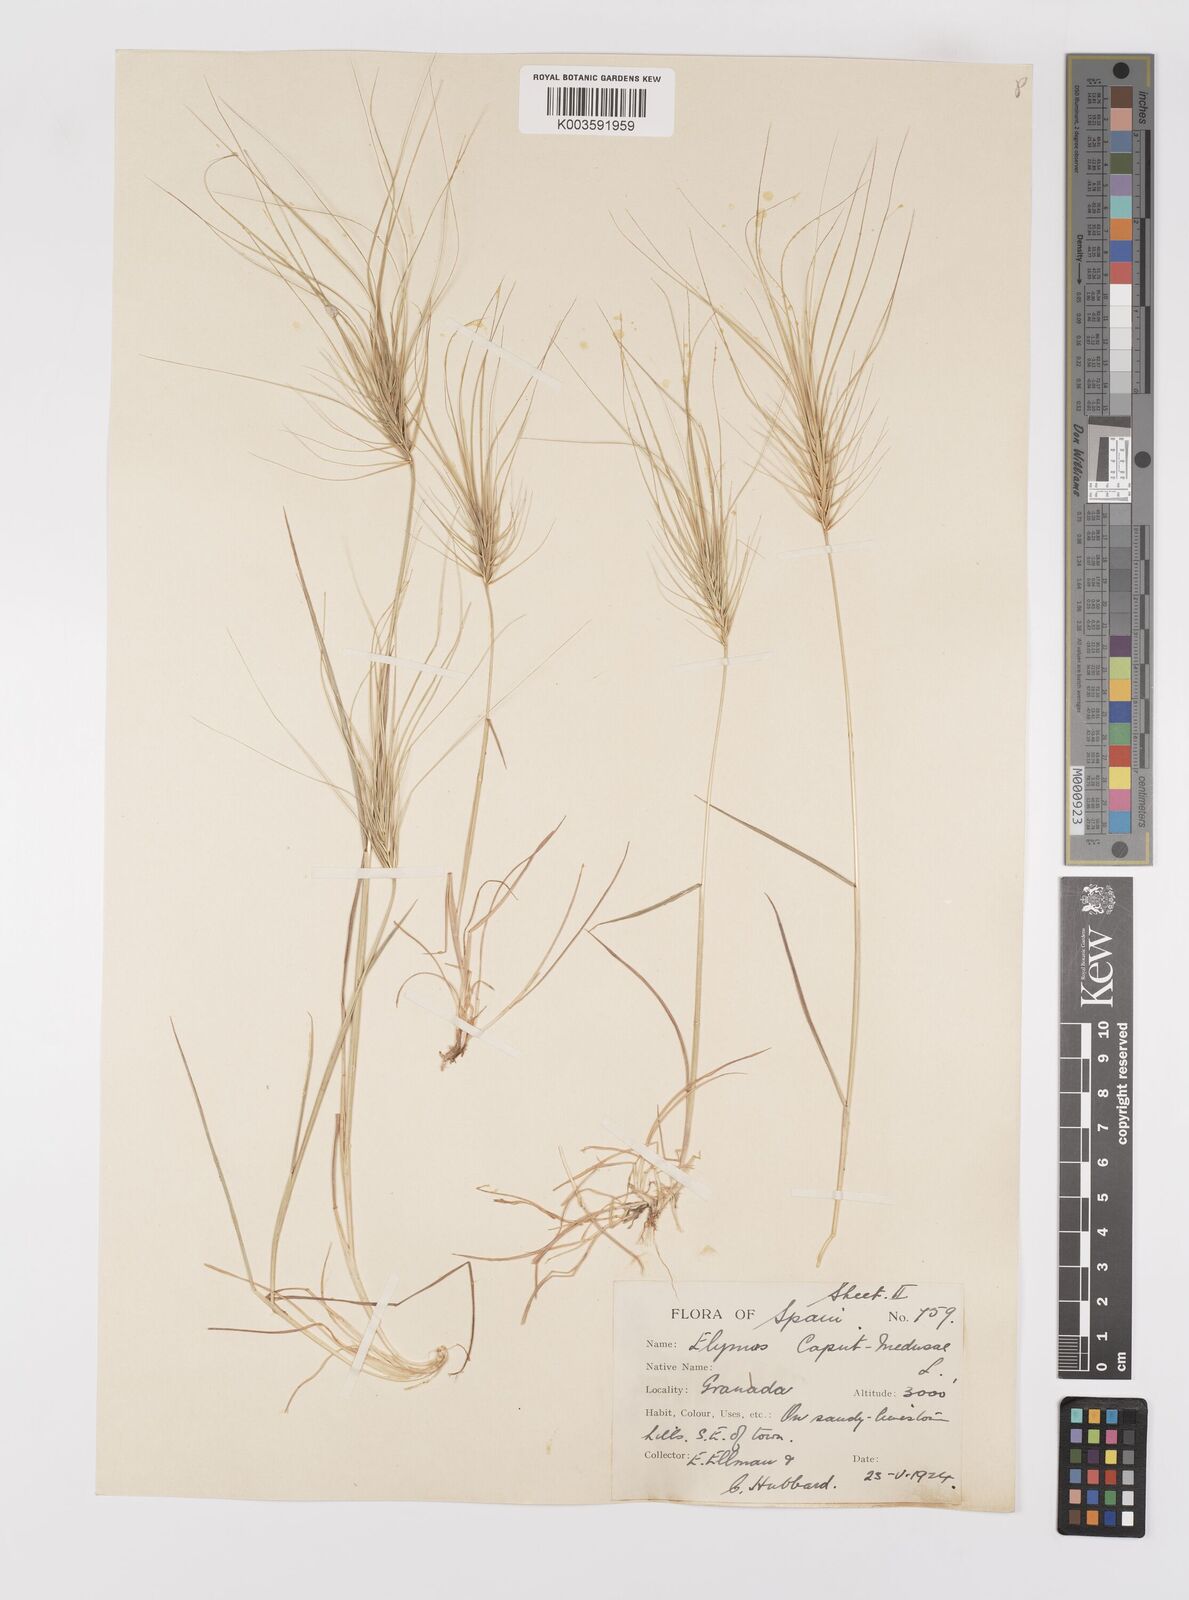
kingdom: Plantae
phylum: Tracheophyta
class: Liliopsida
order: Poales
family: Poaceae
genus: Taeniatherum
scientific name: Taeniatherum caput-medusae
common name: Medusahead
